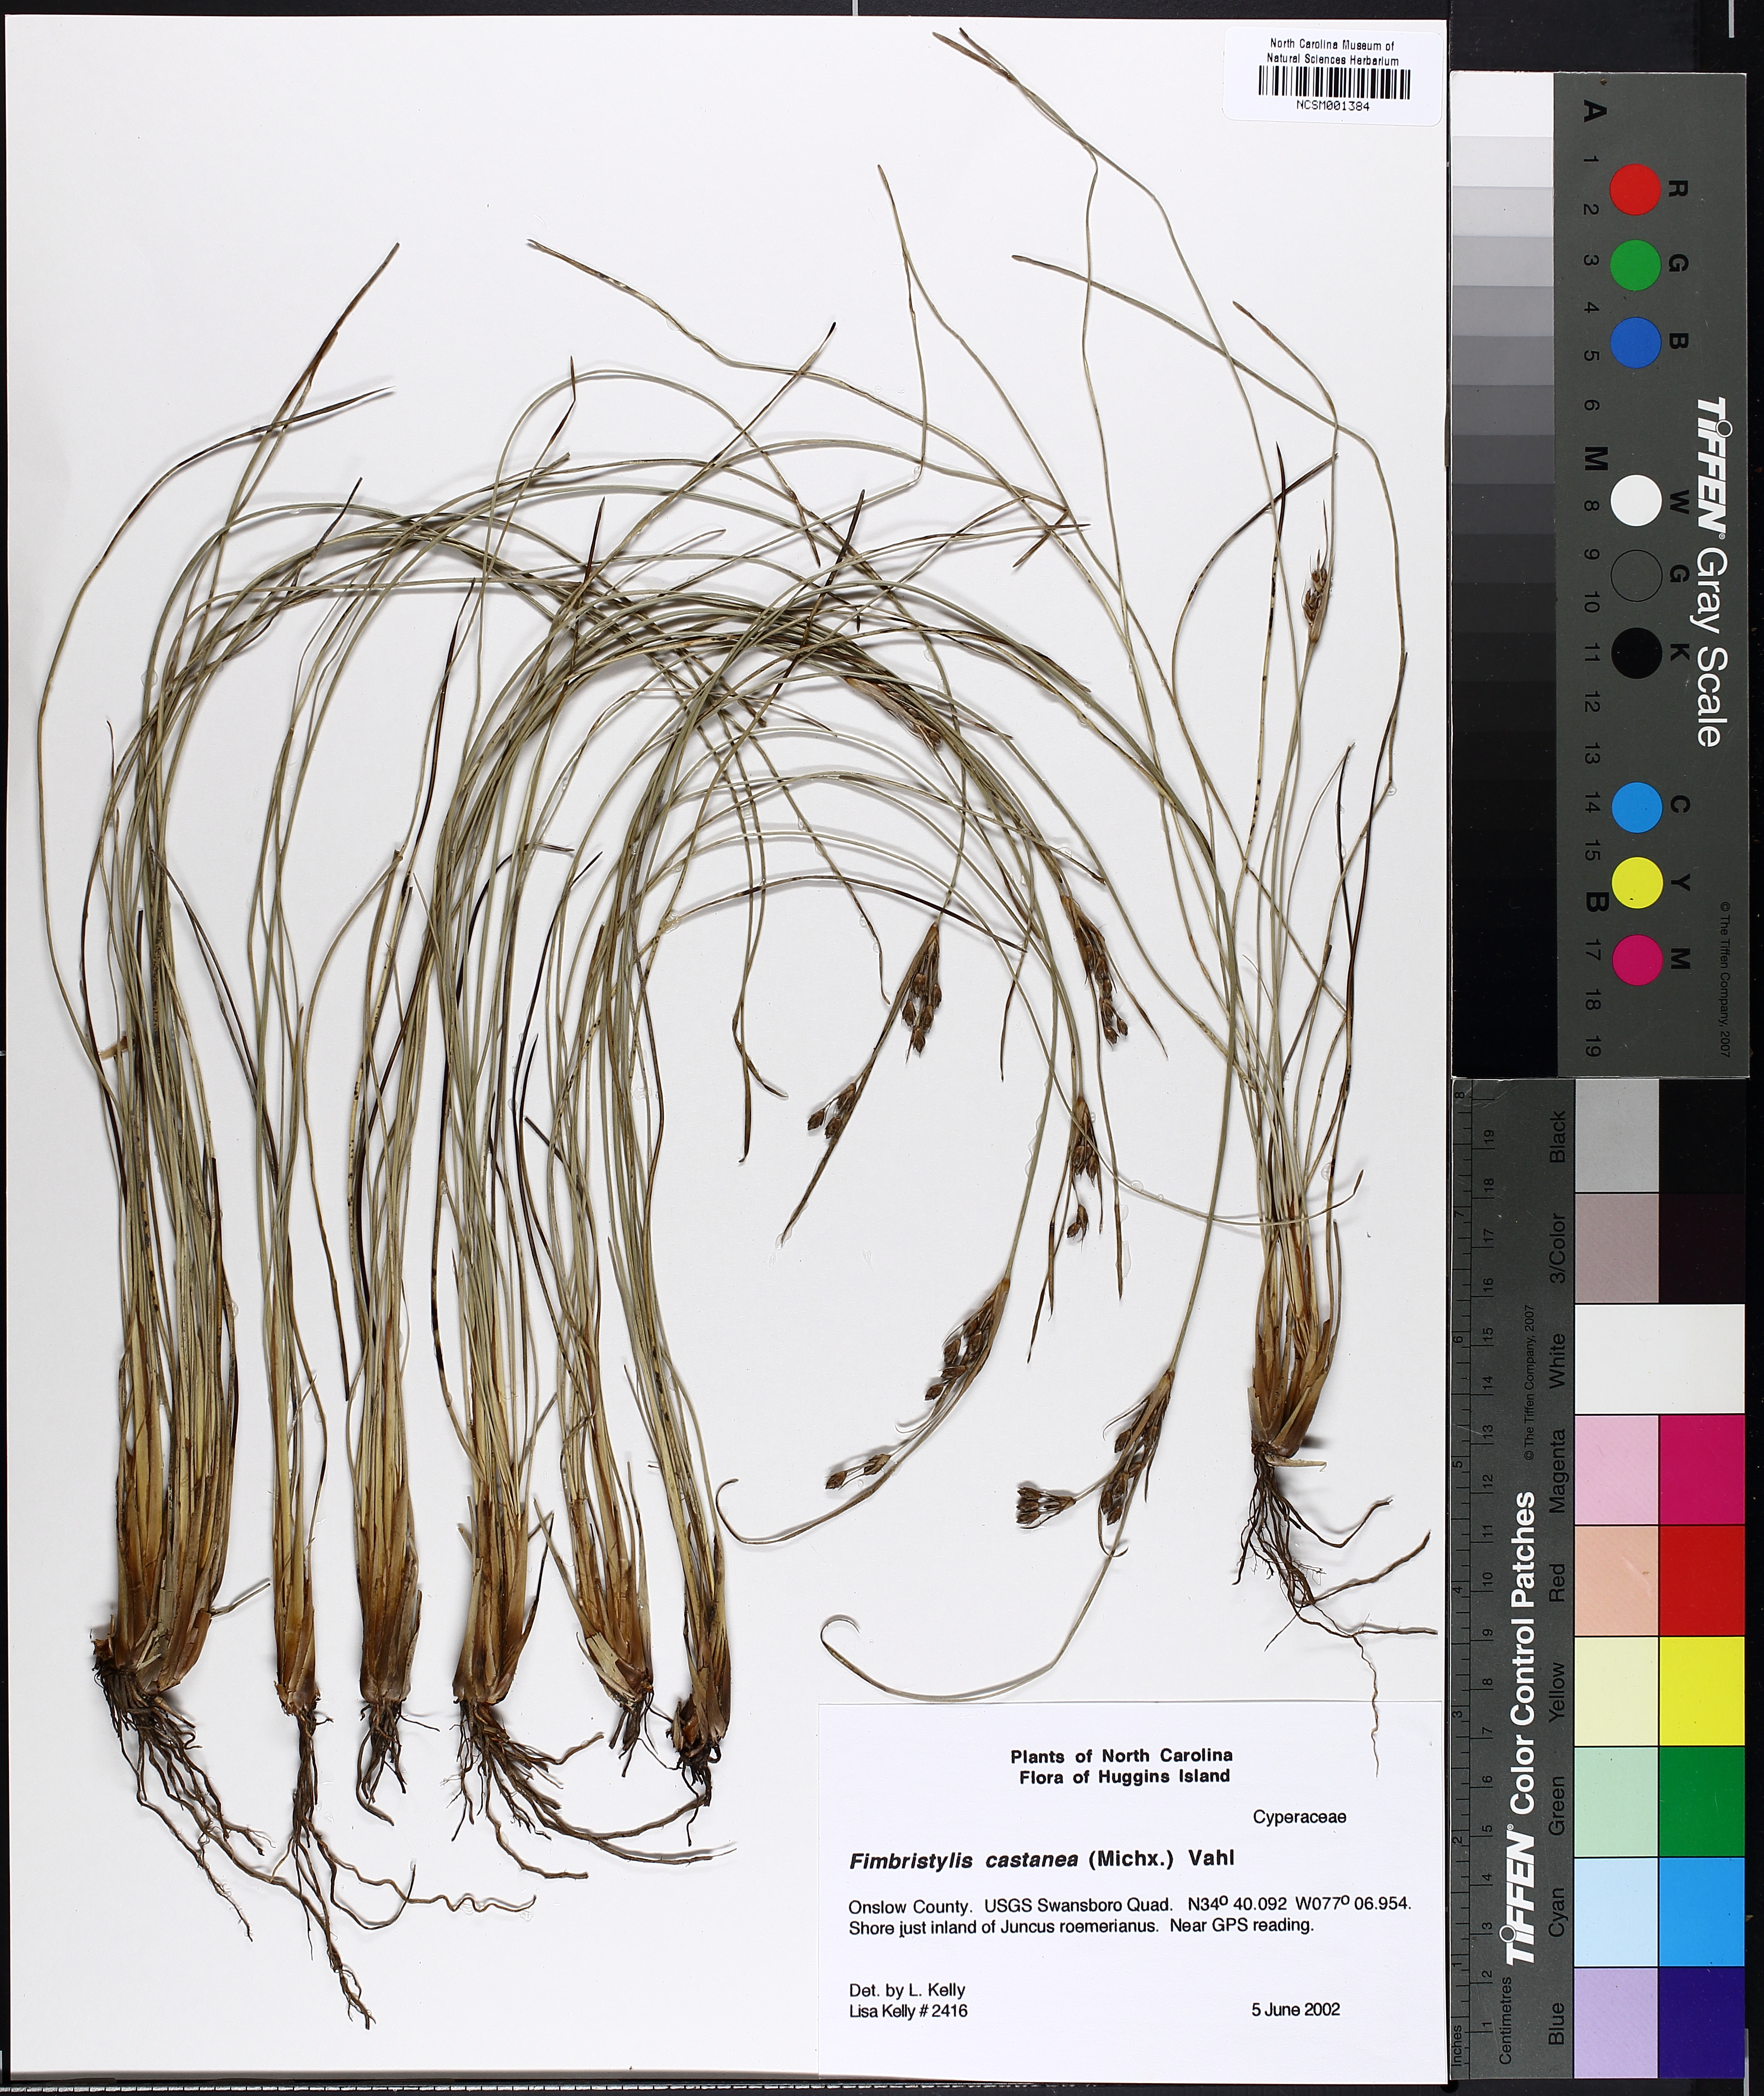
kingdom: Plantae
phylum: Tracheophyta
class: Liliopsida
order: Poales
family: Cyperaceae
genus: Fimbristylis
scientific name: Fimbristylis spadicea
